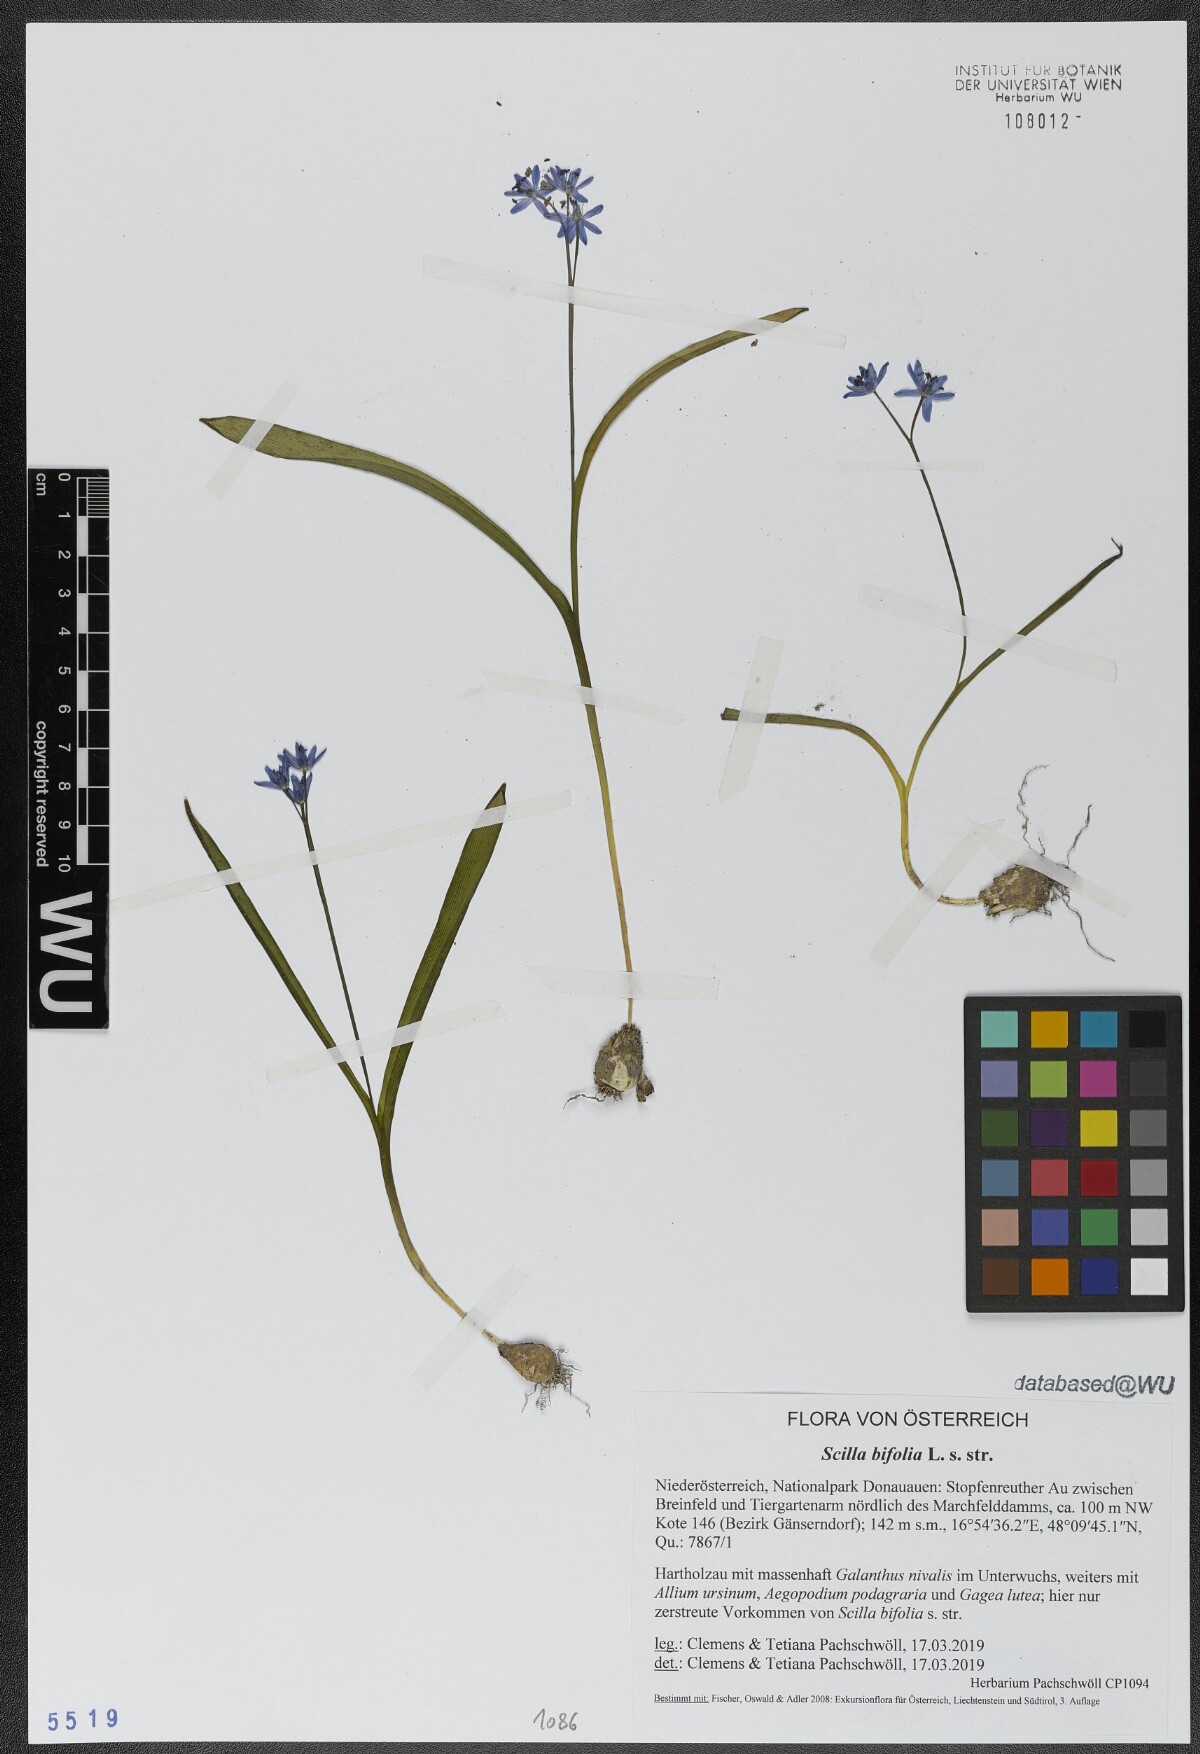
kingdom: Plantae
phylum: Tracheophyta
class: Liliopsida
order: Asparagales
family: Asparagaceae
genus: Scilla
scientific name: Scilla bifolia
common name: Alpine squill
